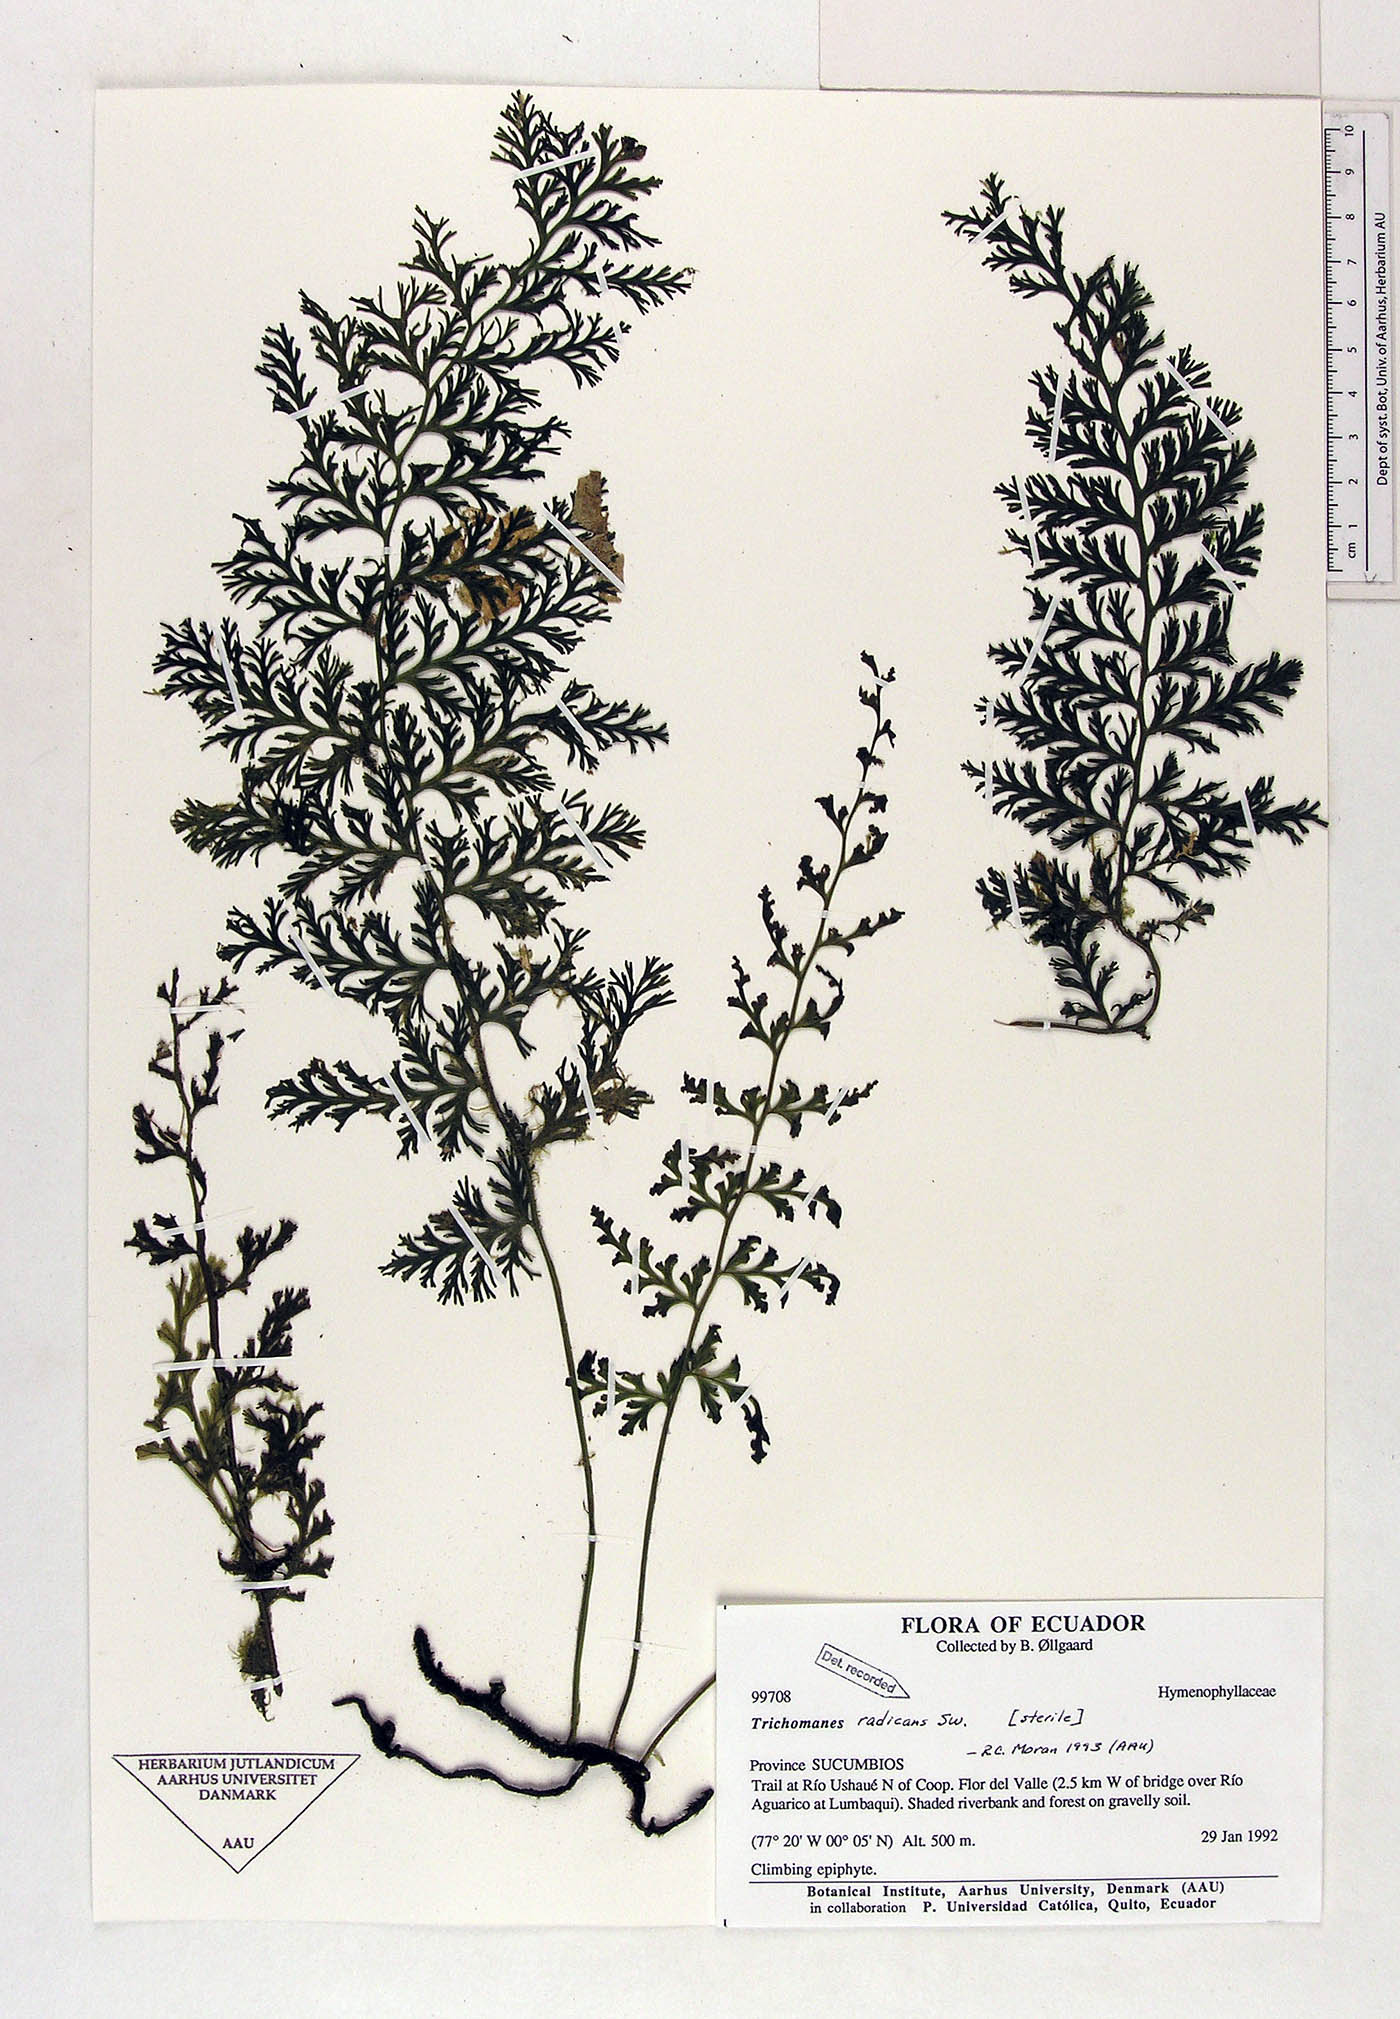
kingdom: Plantae
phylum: Tracheophyta
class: Polypodiopsida
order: Hymenophyllales
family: Hymenophyllaceae
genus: Vandenboschia
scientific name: Vandenboschia radicans
